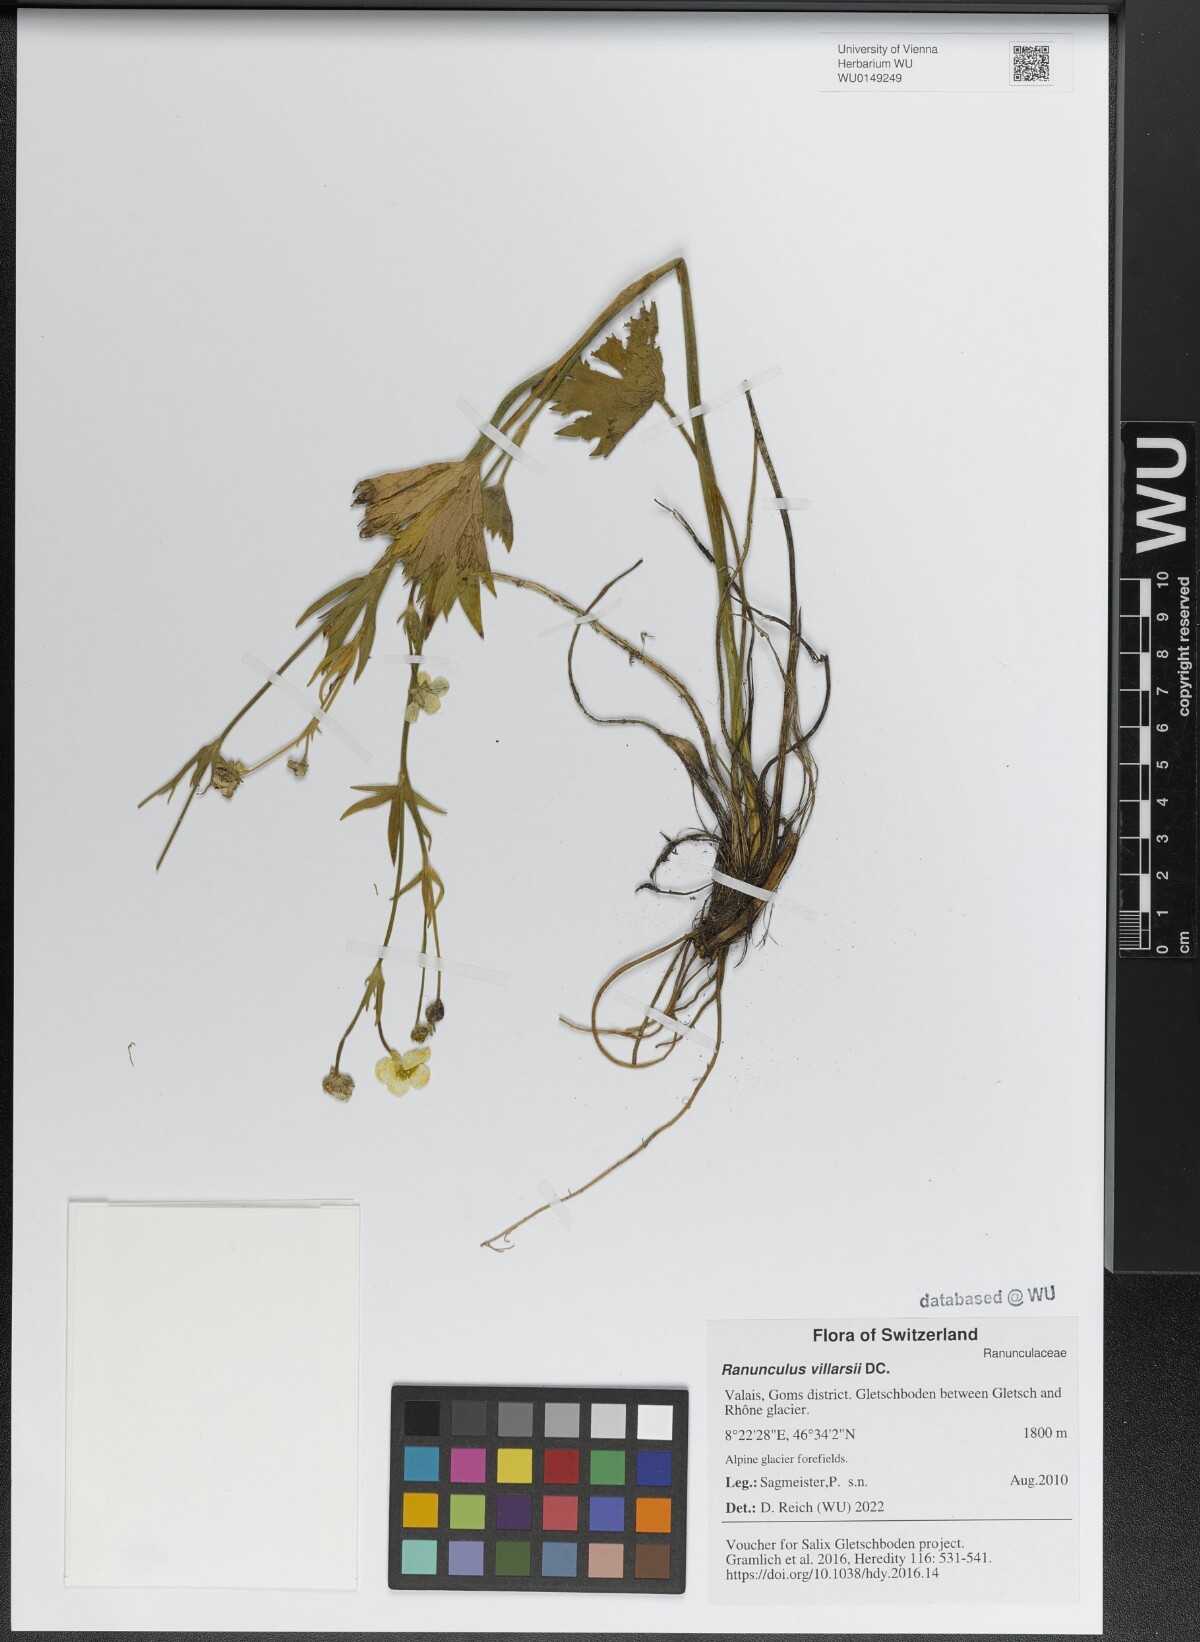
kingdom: Plantae
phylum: Tracheophyta
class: Magnoliopsida
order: Ranunculales
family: Ranunculaceae
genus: Ranunculus
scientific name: Ranunculus villarsii
